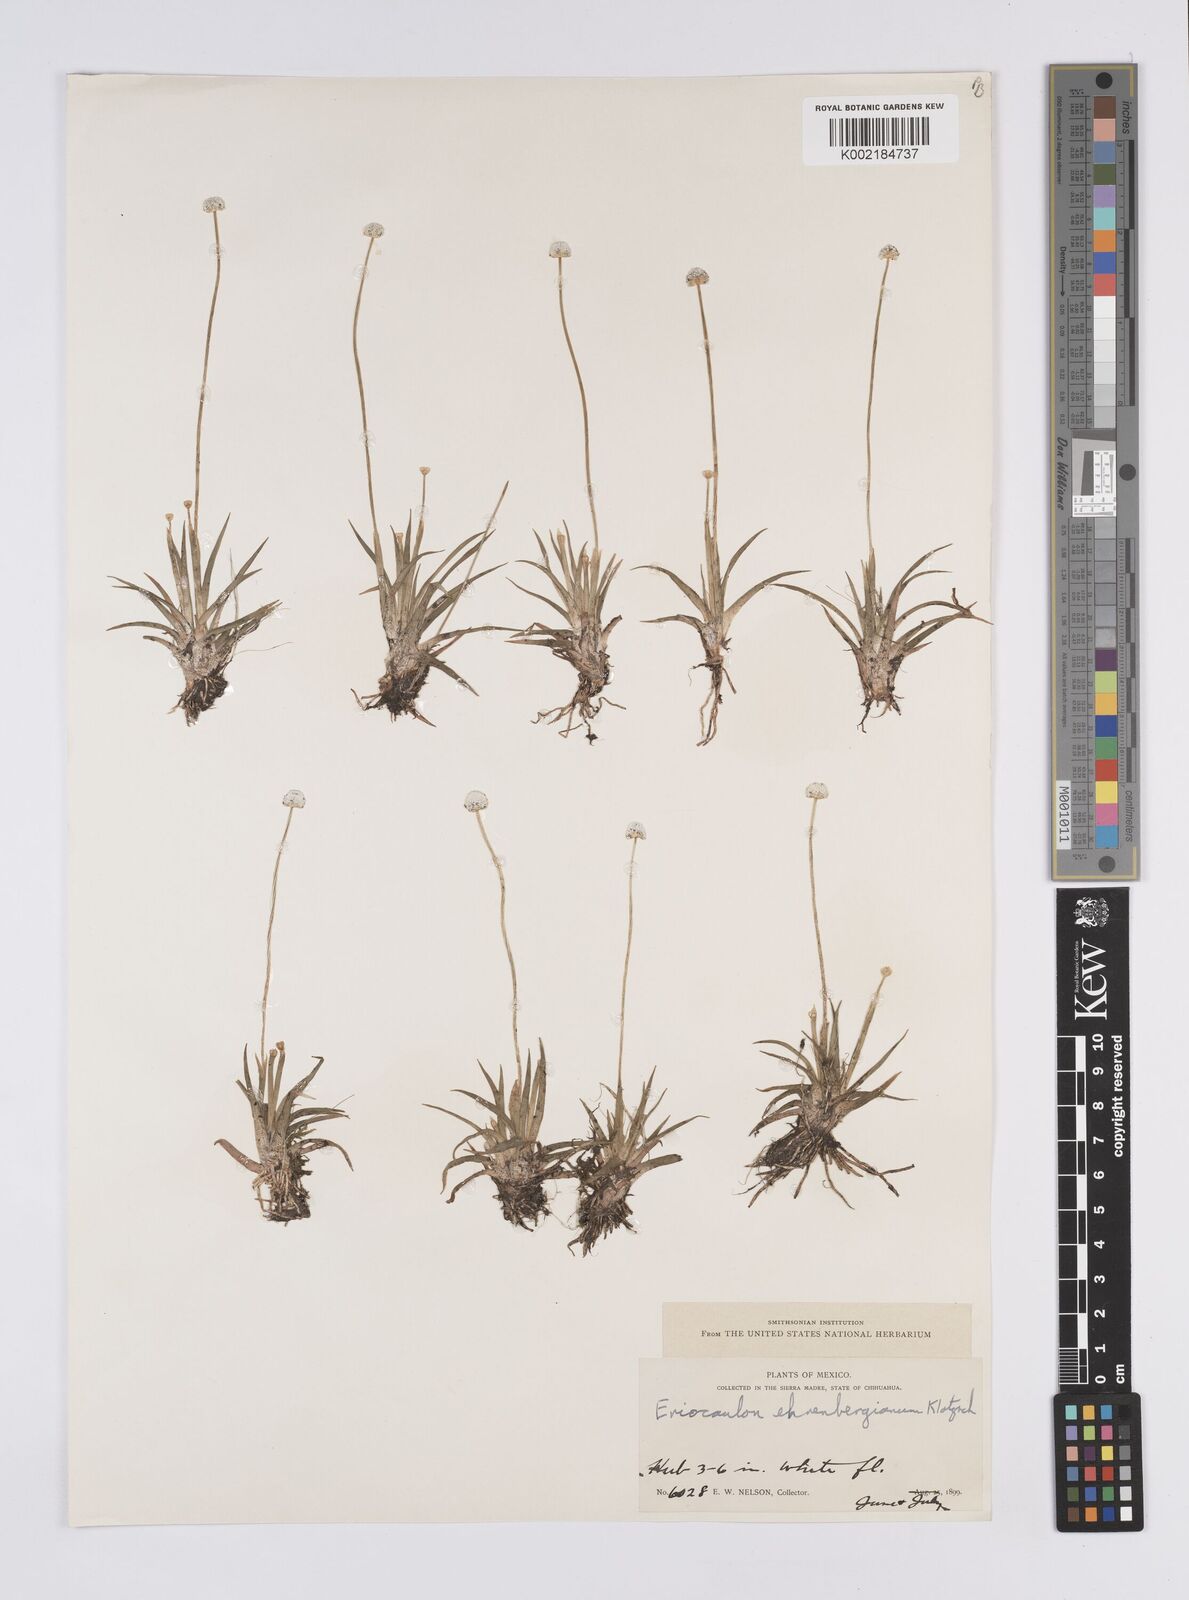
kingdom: Plantae
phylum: Tracheophyta
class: Liliopsida
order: Poales
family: Eriocaulaceae
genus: Eriocaulon
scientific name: Eriocaulon ehrenbergianum
